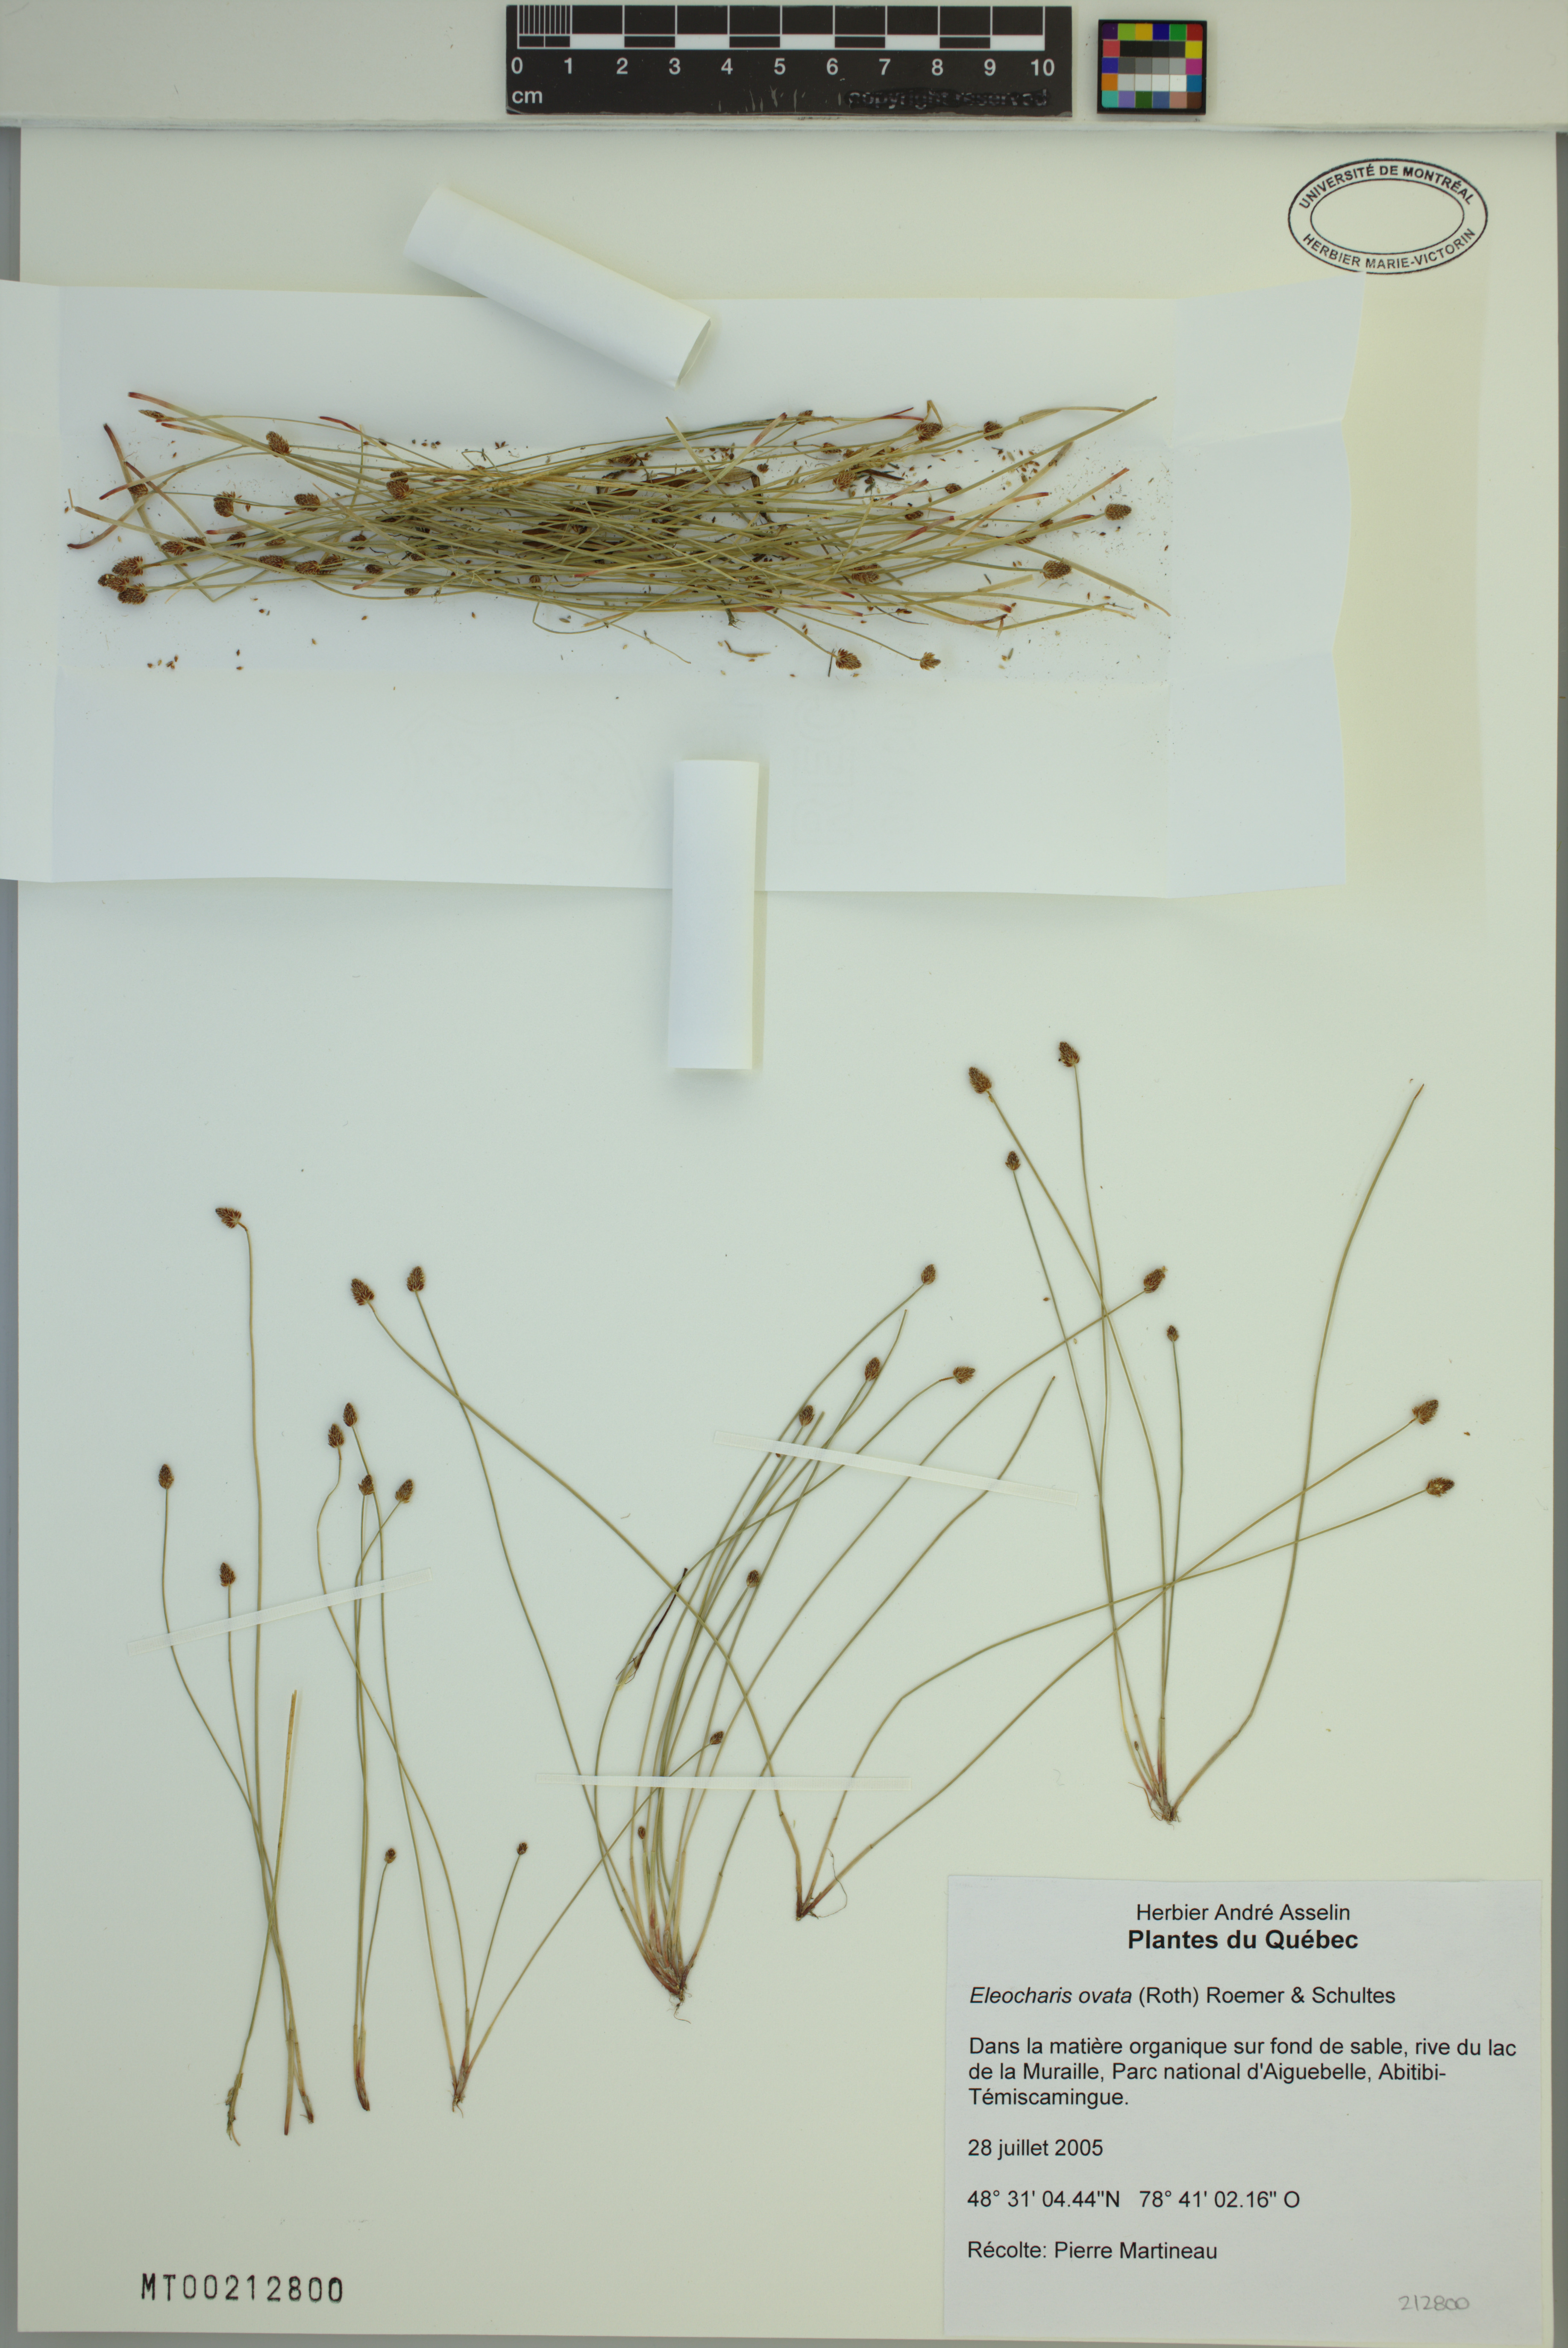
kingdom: Plantae
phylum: Tracheophyta
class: Liliopsida
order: Poales
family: Cyperaceae
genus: Eleocharis
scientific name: Eleocharis ovata
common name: Oval spike-rush
